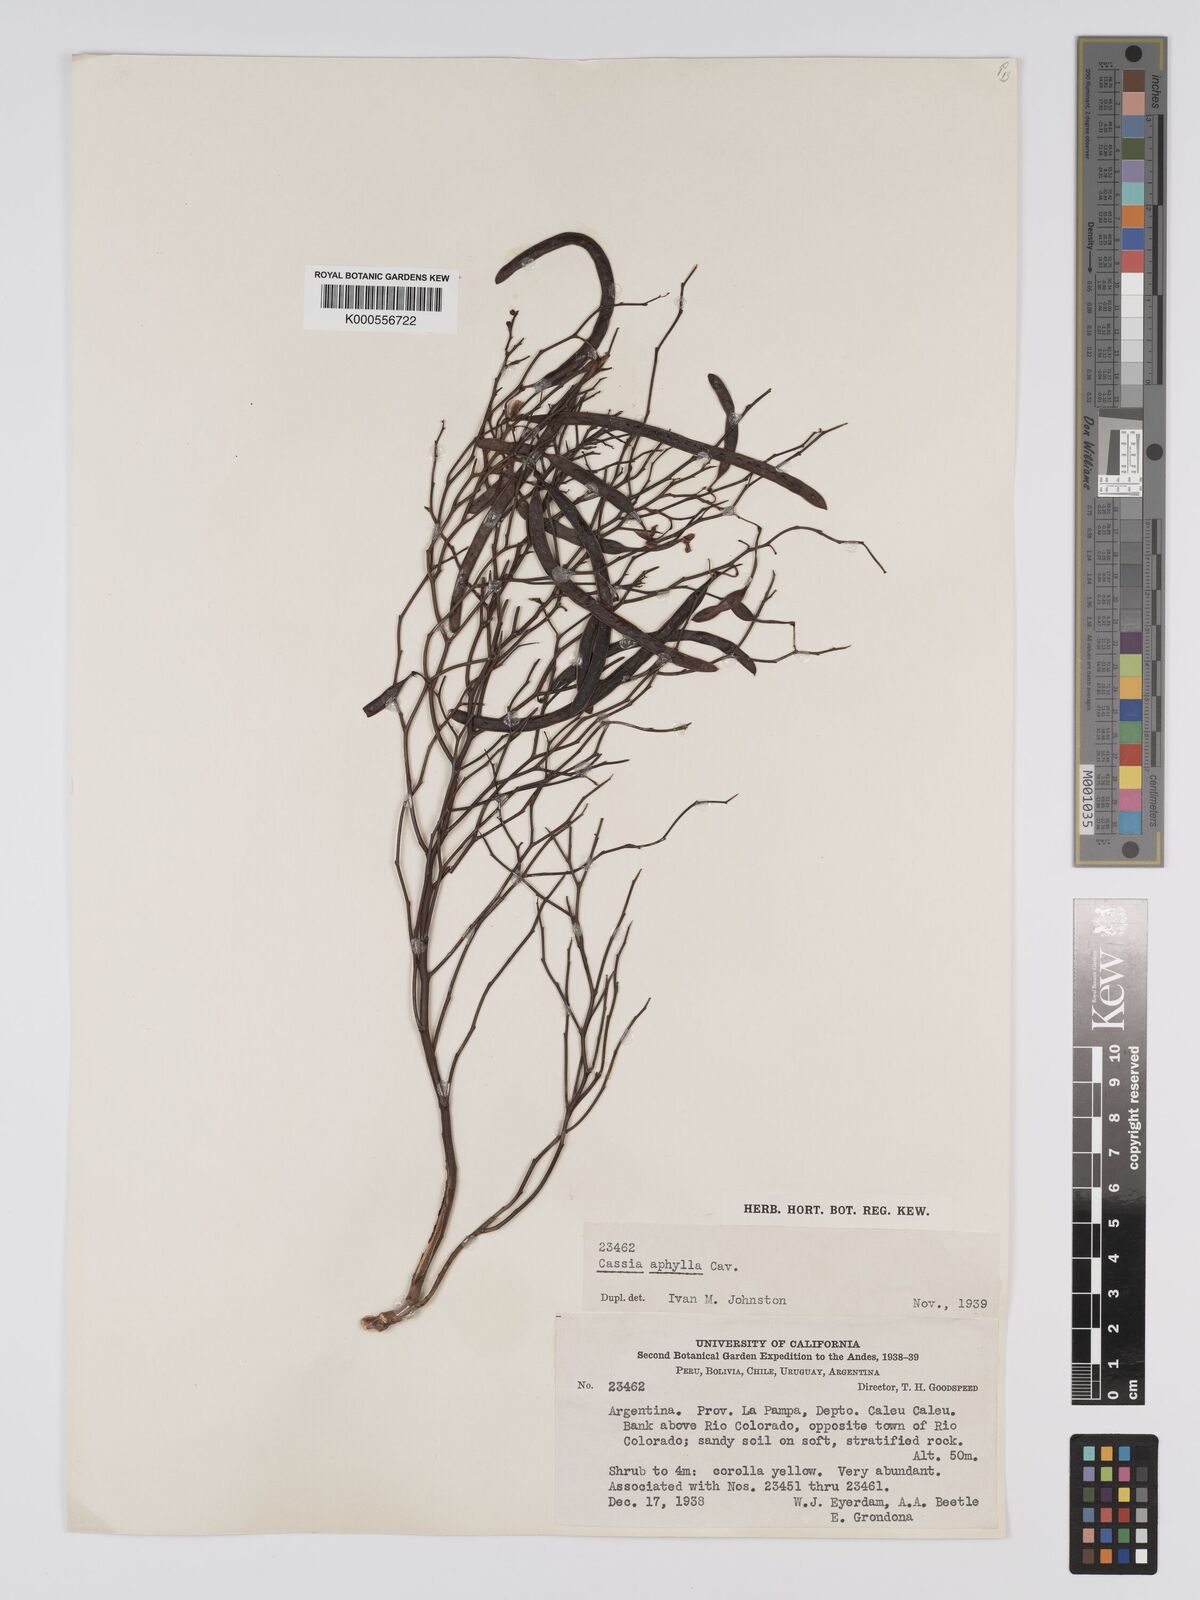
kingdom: Plantae
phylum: Tracheophyta
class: Magnoliopsida
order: Fabales
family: Fabaceae
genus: Senna
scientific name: Senna aphylla
